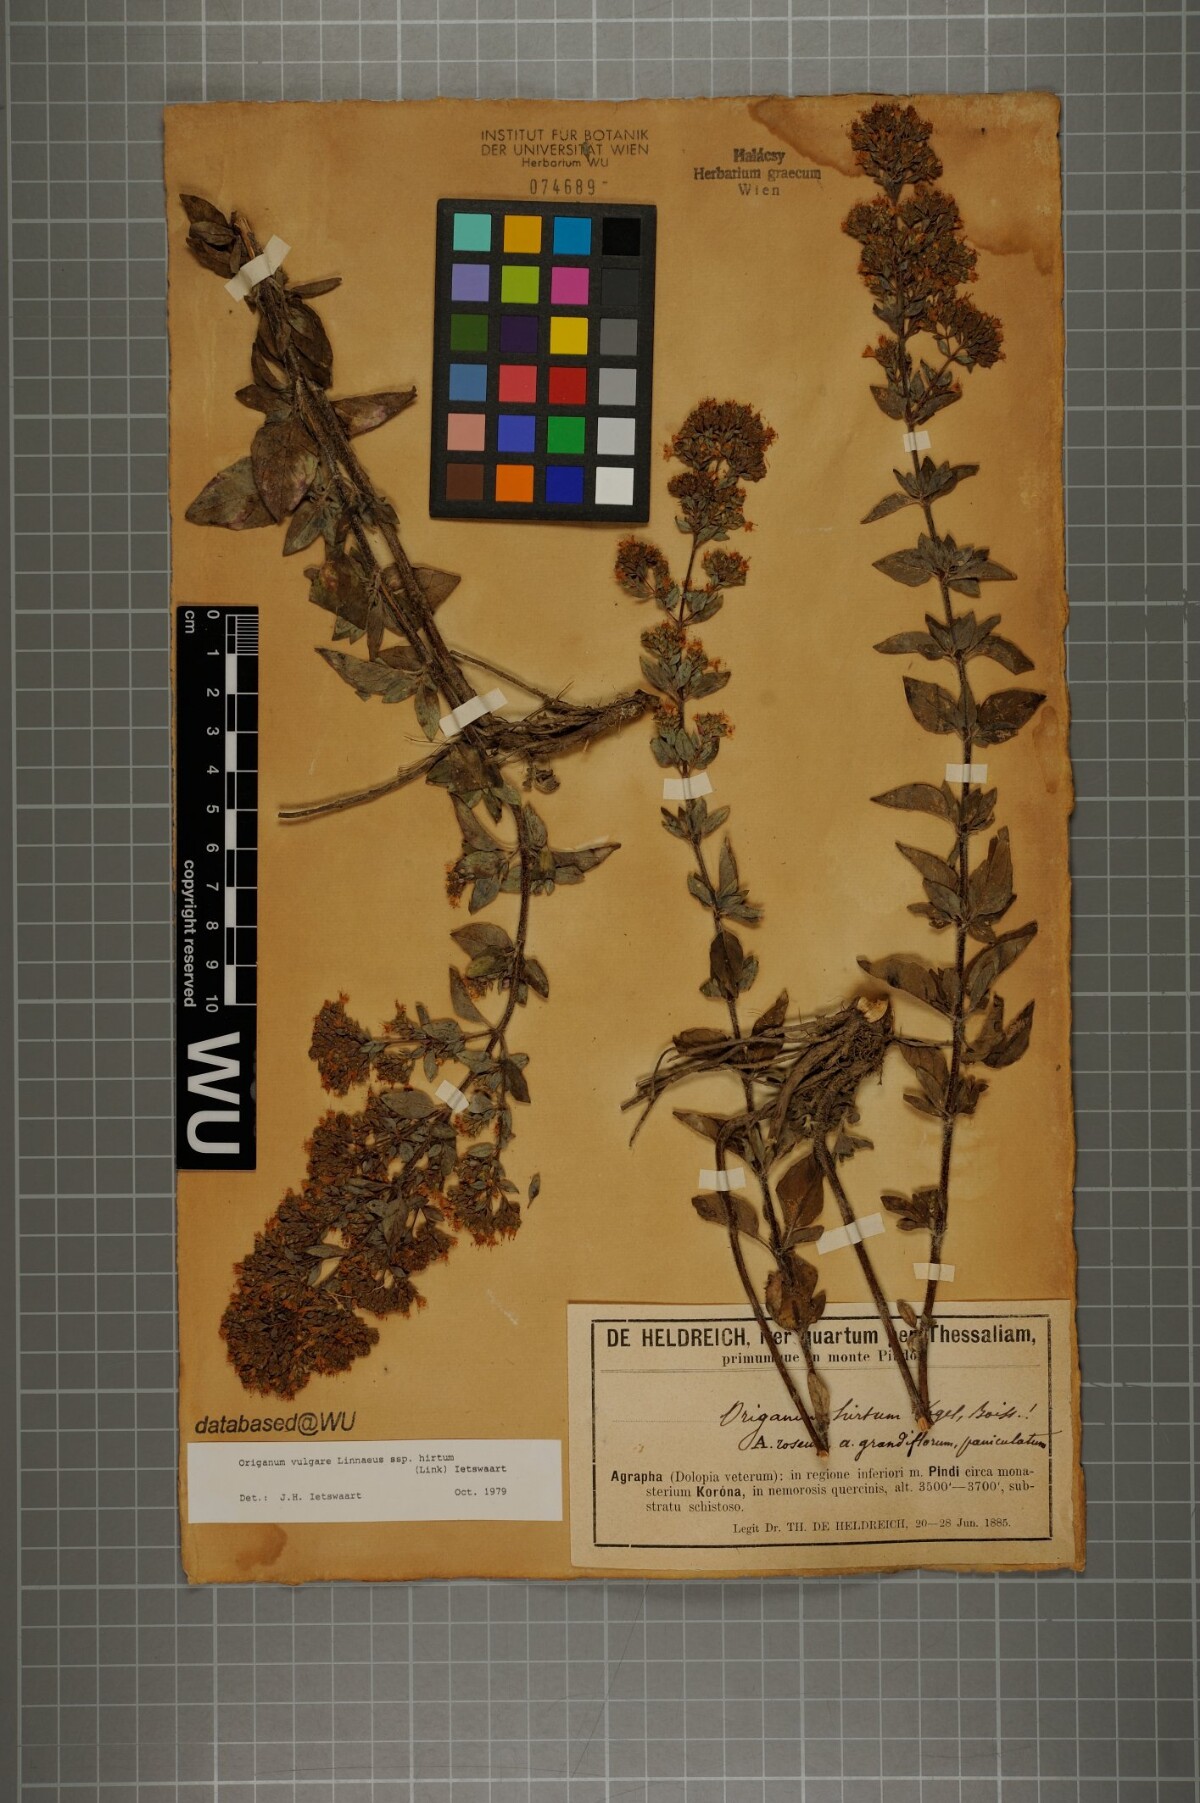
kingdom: Plantae
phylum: Tracheophyta
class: Magnoliopsida
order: Lamiales
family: Lamiaceae
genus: Origanum
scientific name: Origanum vulgare
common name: Wild marjoram
